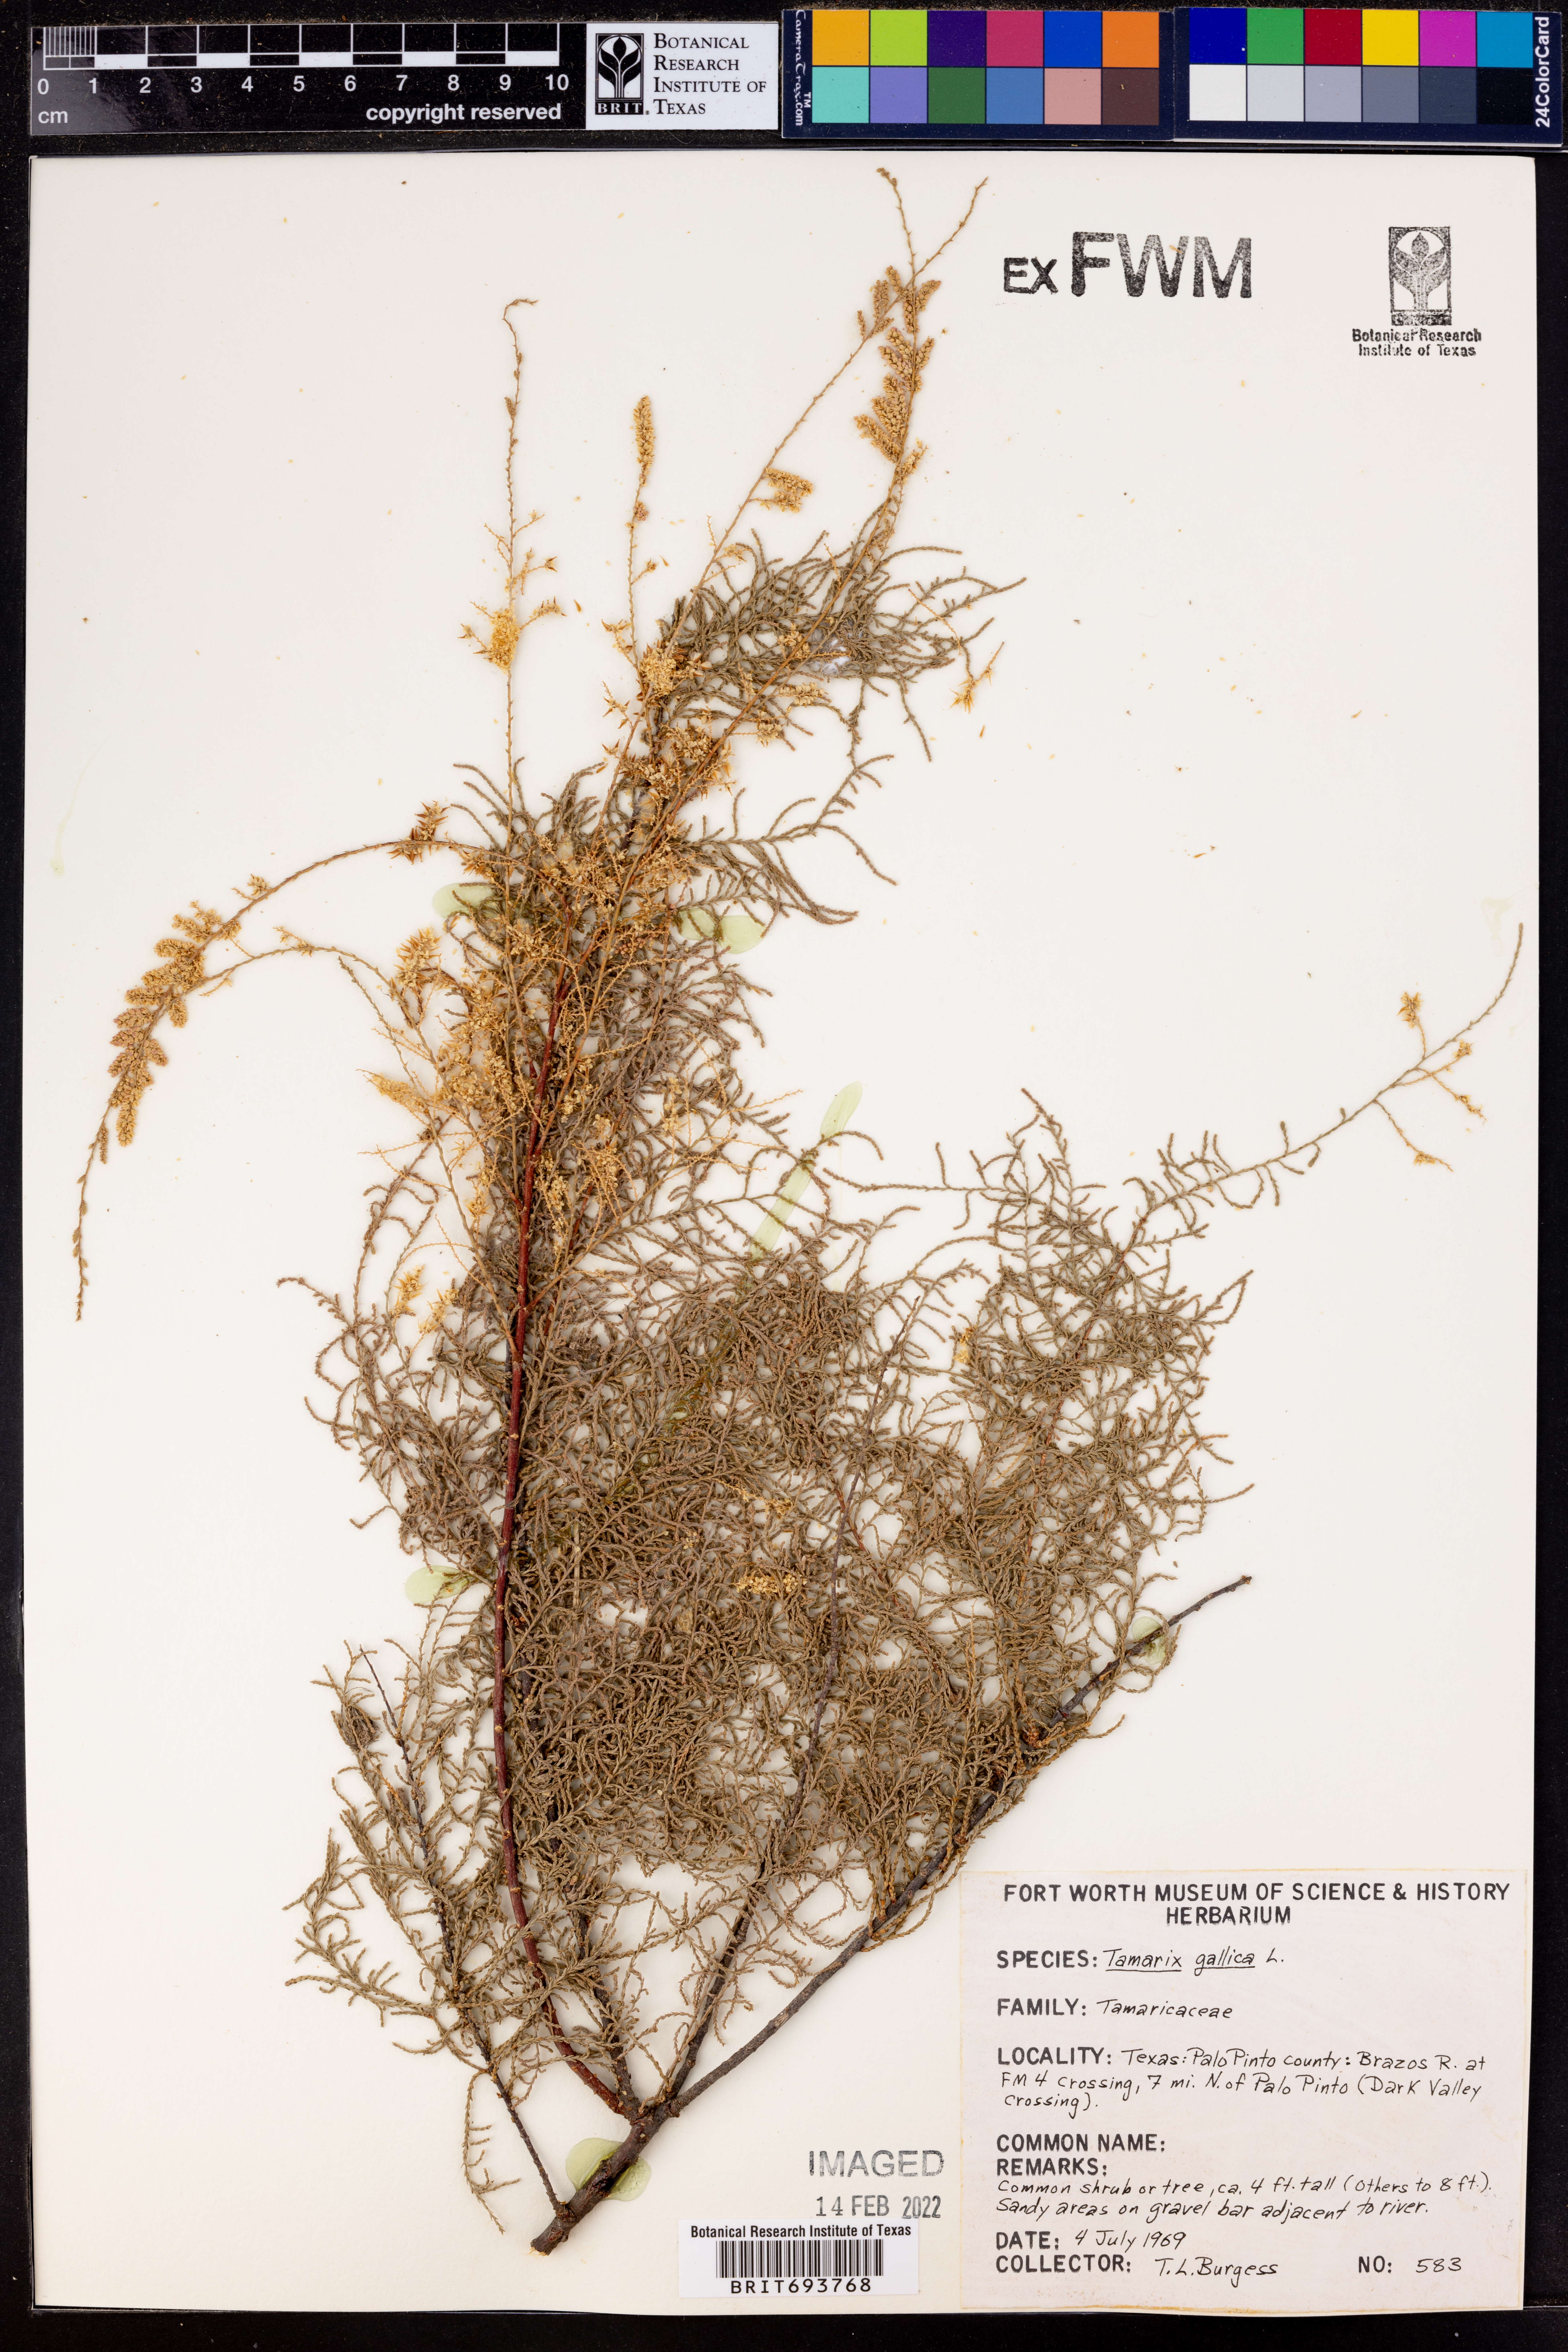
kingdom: Plantae
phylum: Tracheophyta
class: Magnoliopsida
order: Caryophyllales
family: Tamaricaceae
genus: Tamarix
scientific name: Tamarix gallica
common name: Tamarisk
